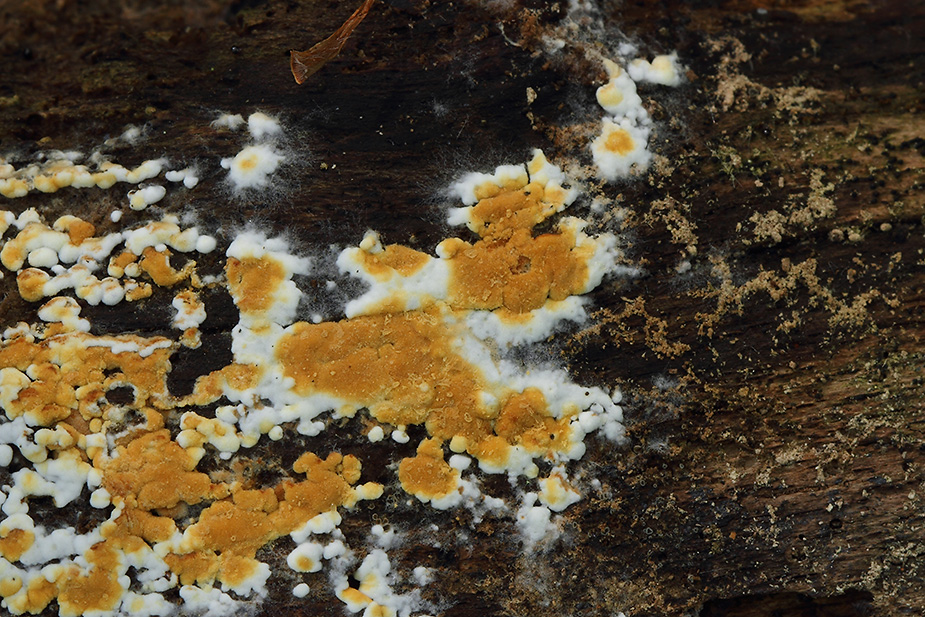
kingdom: Fungi
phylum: Basidiomycota
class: Agaricomycetes
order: Cantharellales
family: Botryobasidiaceae
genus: Botryobasidium
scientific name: Botryobasidium aureum
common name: gylden spindhinde
